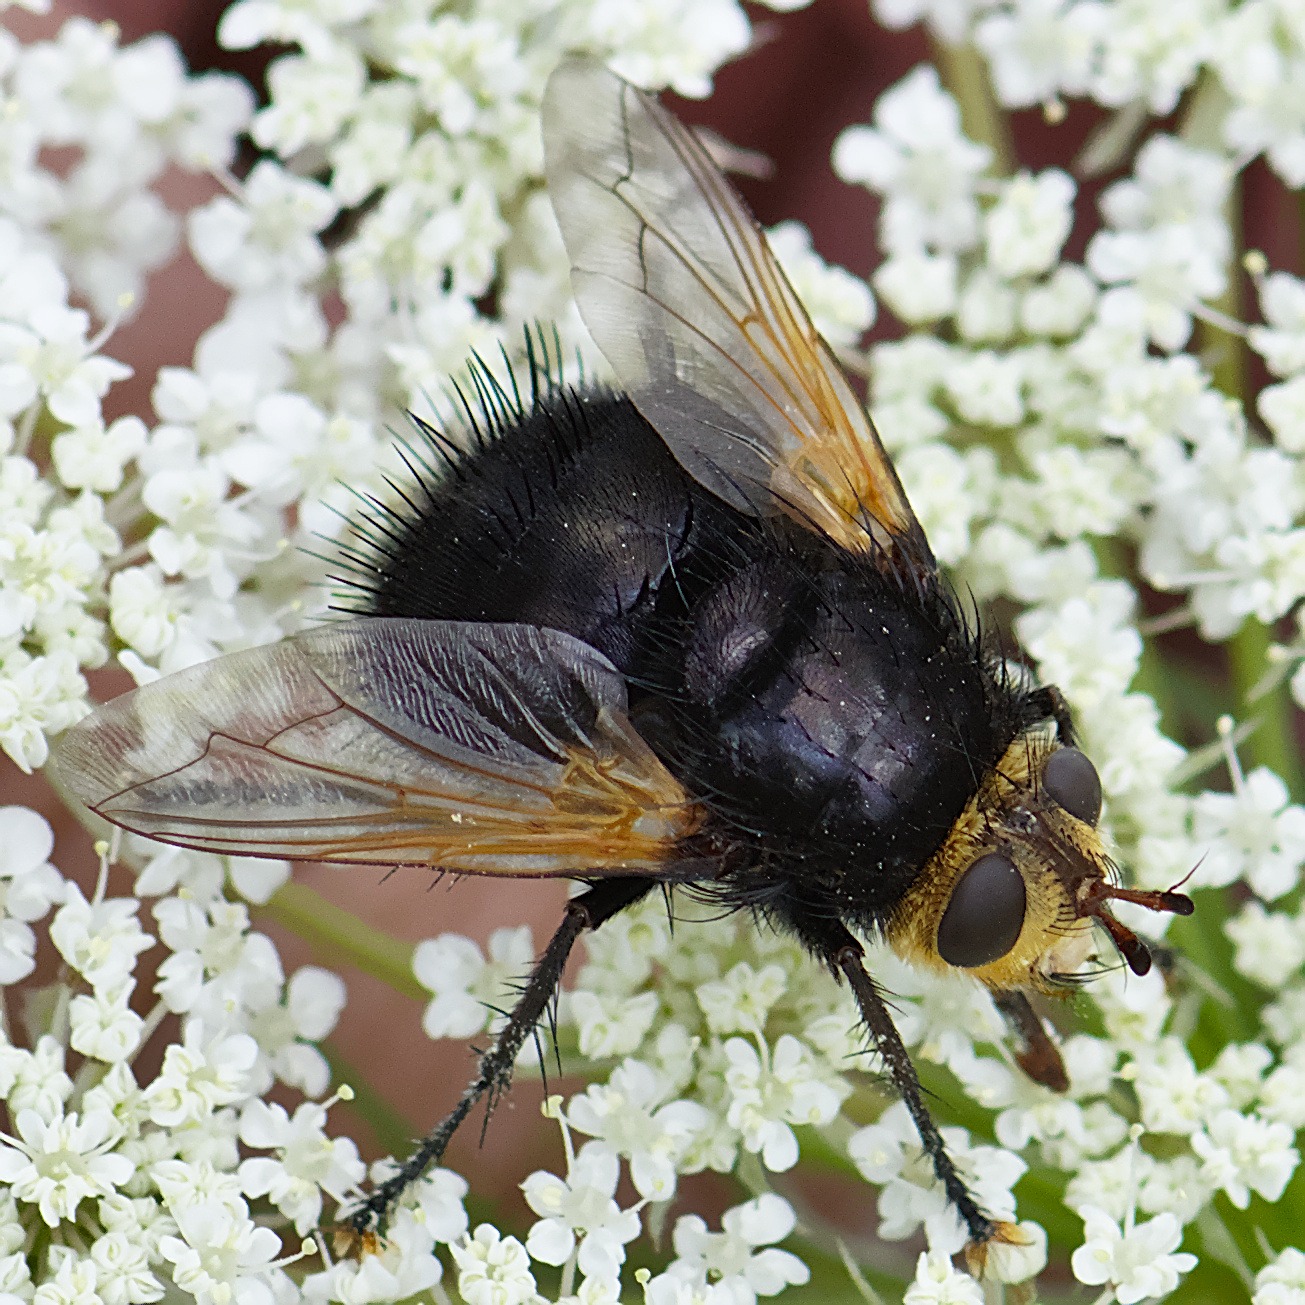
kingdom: Animalia
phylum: Arthropoda
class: Insecta
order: Diptera
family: Tachinidae
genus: Tachina
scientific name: Tachina grossa
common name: Kæmpefluen Harald
